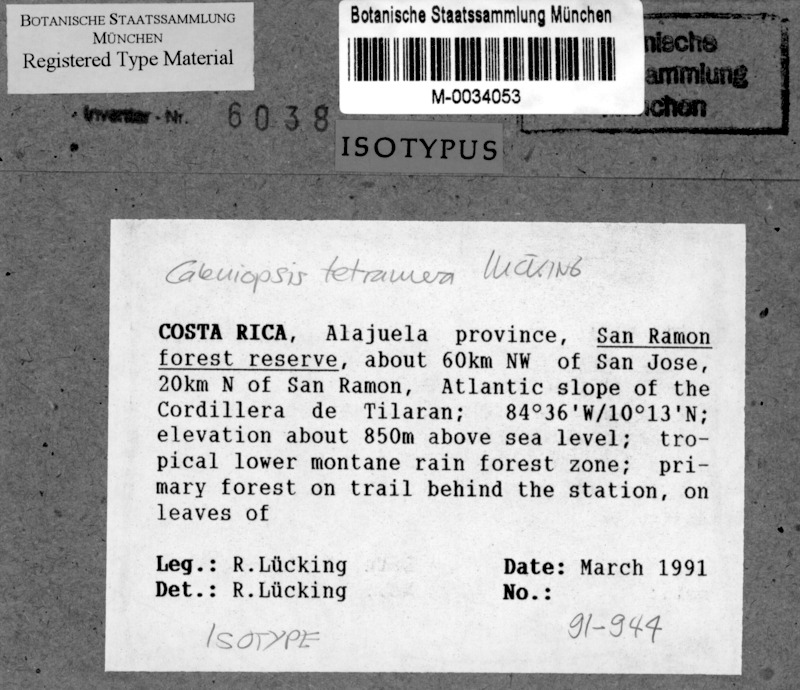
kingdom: Fungi
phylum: Ascomycota
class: Lecanoromycetes
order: Ostropales
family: Gomphillaceae
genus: Caleniopsis
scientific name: Caleniopsis tetramera
